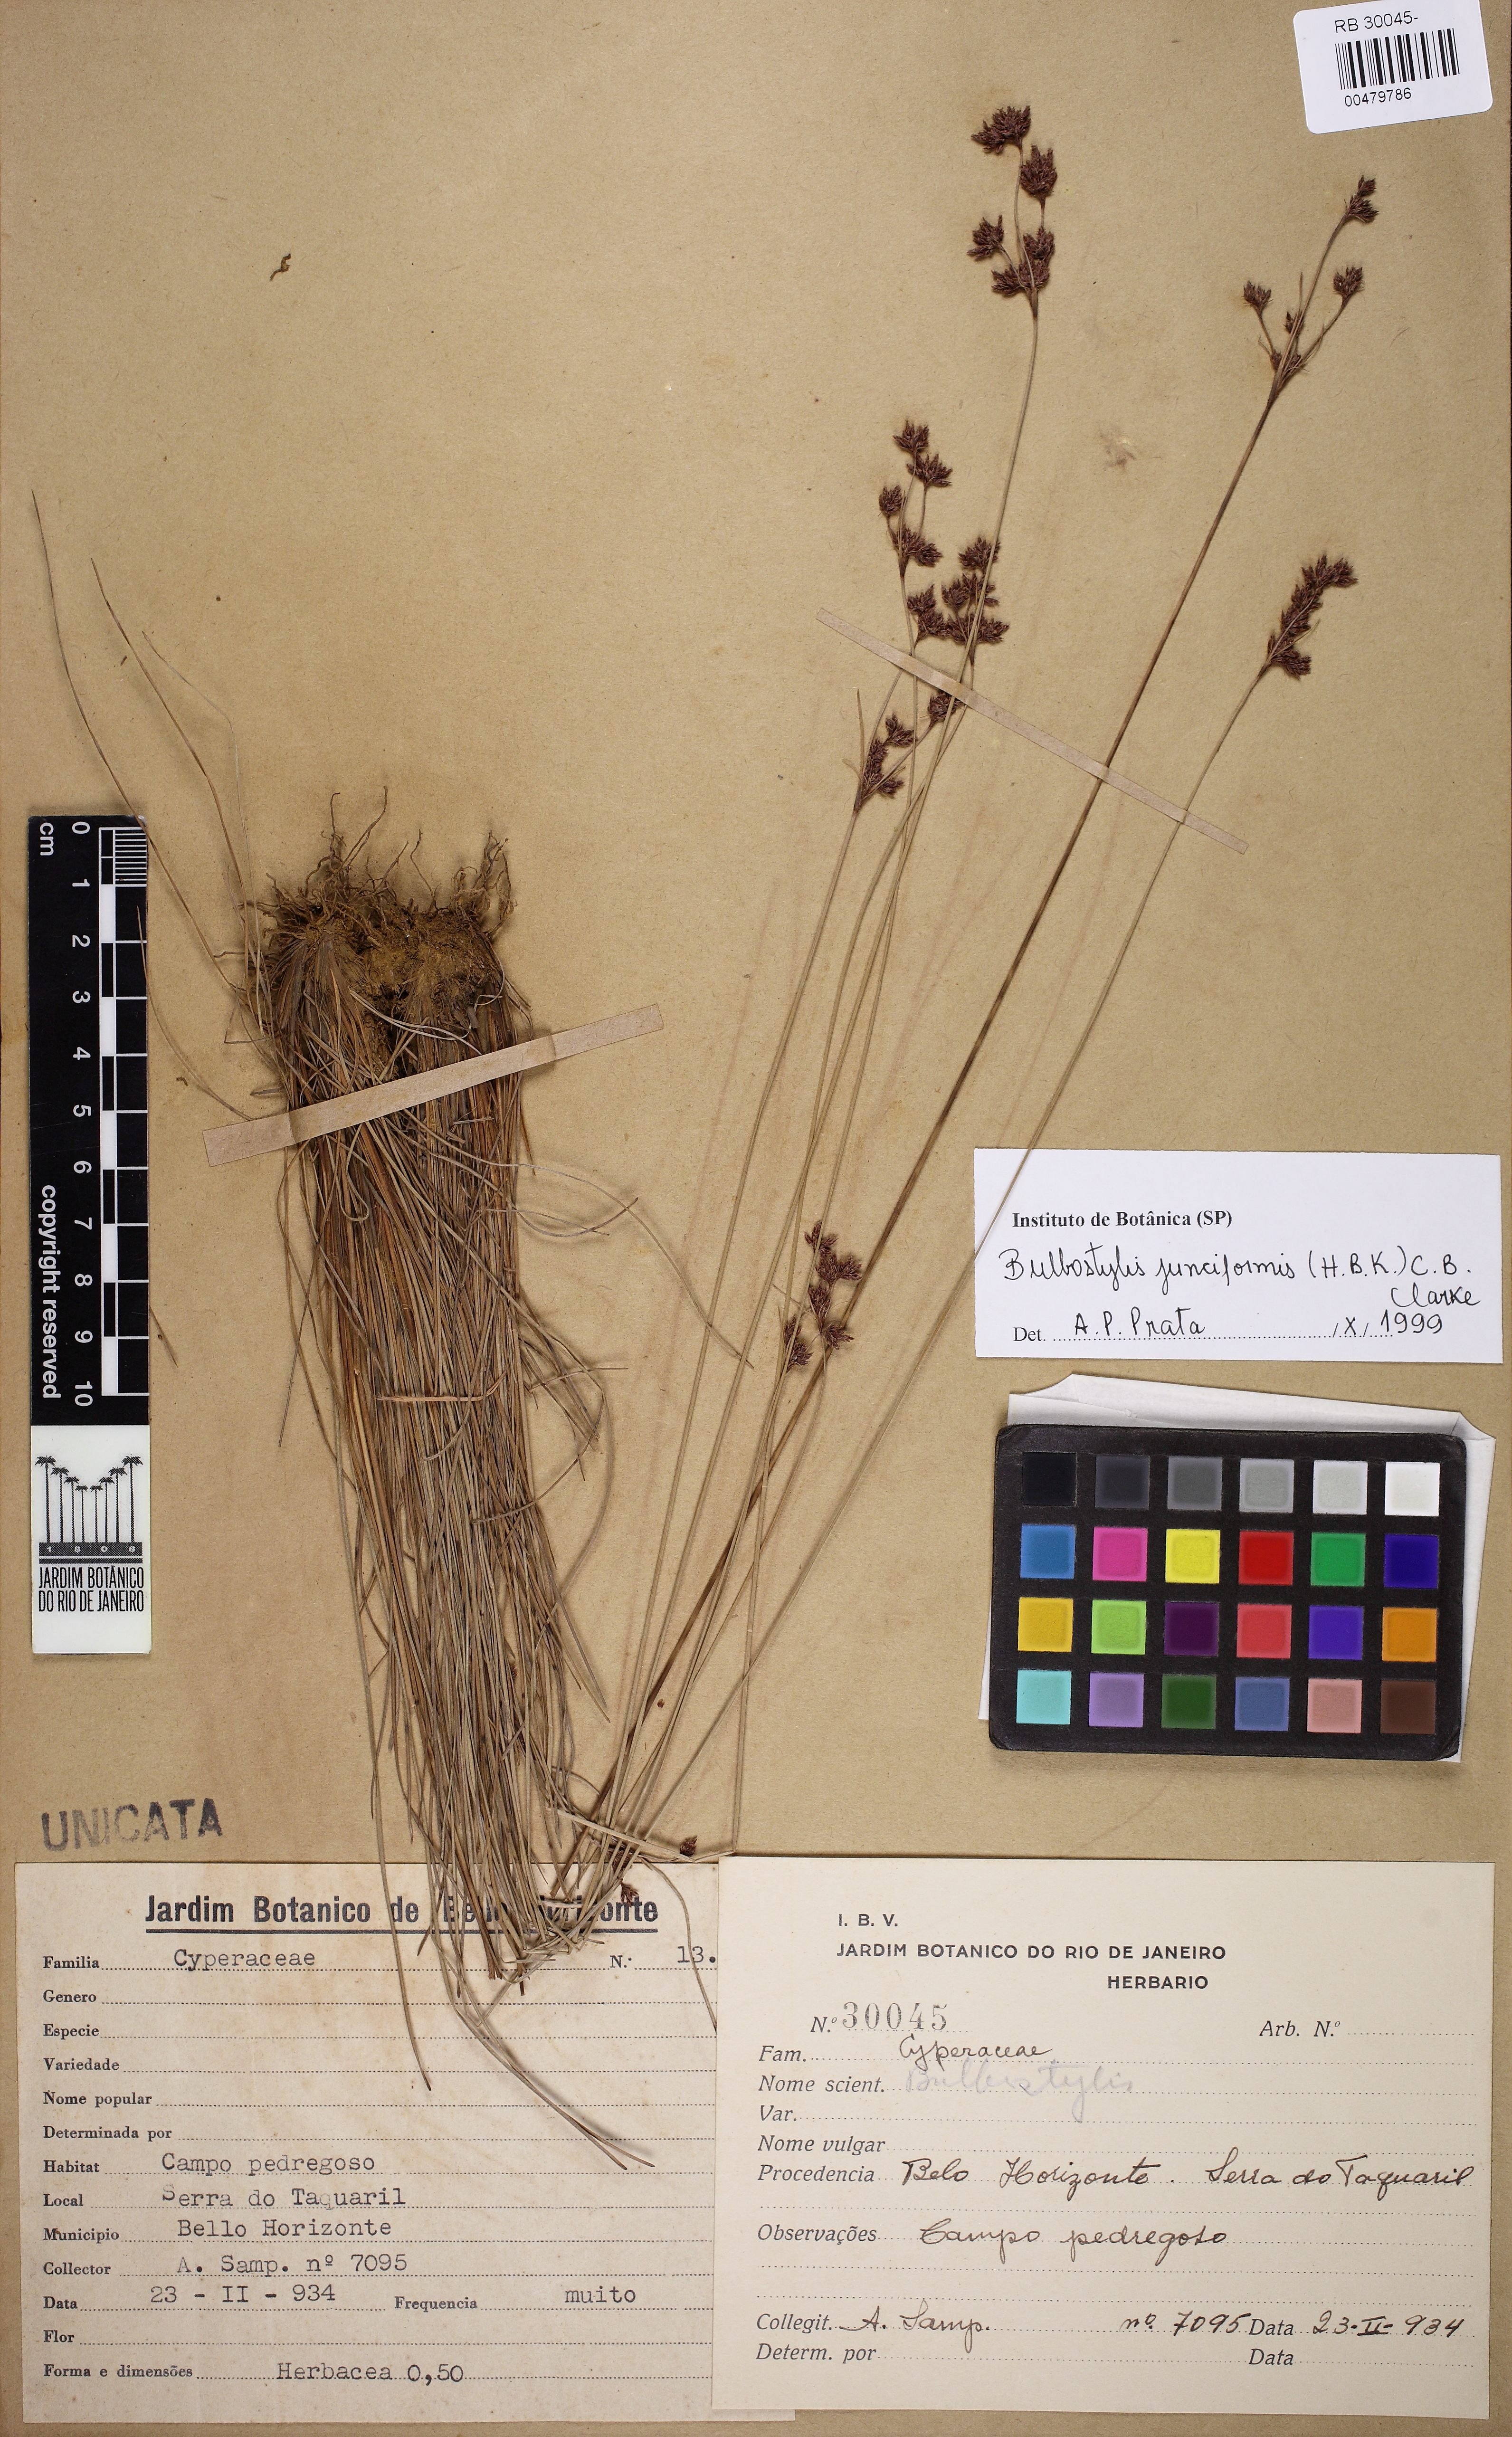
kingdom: Plantae
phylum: Tracheophyta
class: Liliopsida
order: Poales
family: Cyperaceae
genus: Bulbostylis
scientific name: Bulbostylis junciformis
